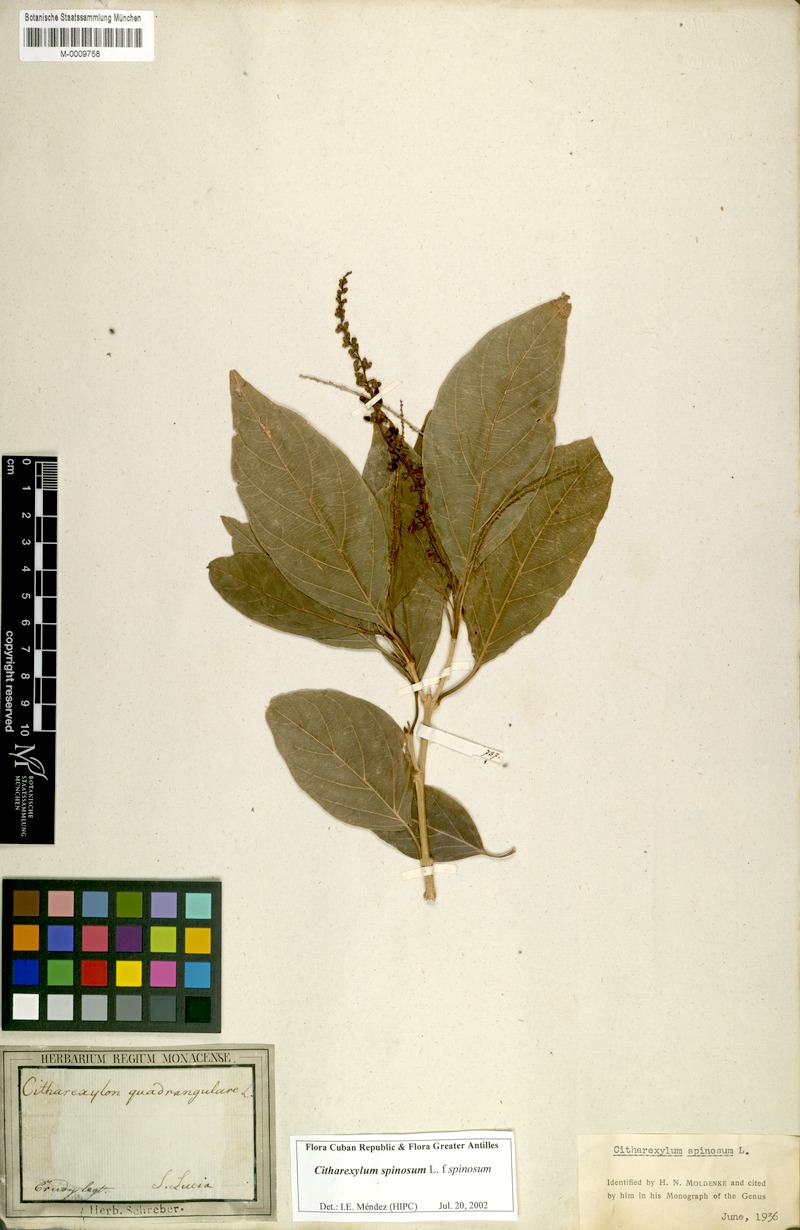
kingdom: Plantae
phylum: Tracheophyta
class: Magnoliopsida
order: Lamiales
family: Verbenaceae
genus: Citharexylum
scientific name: Citharexylum spinosum
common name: Fiddlewood
